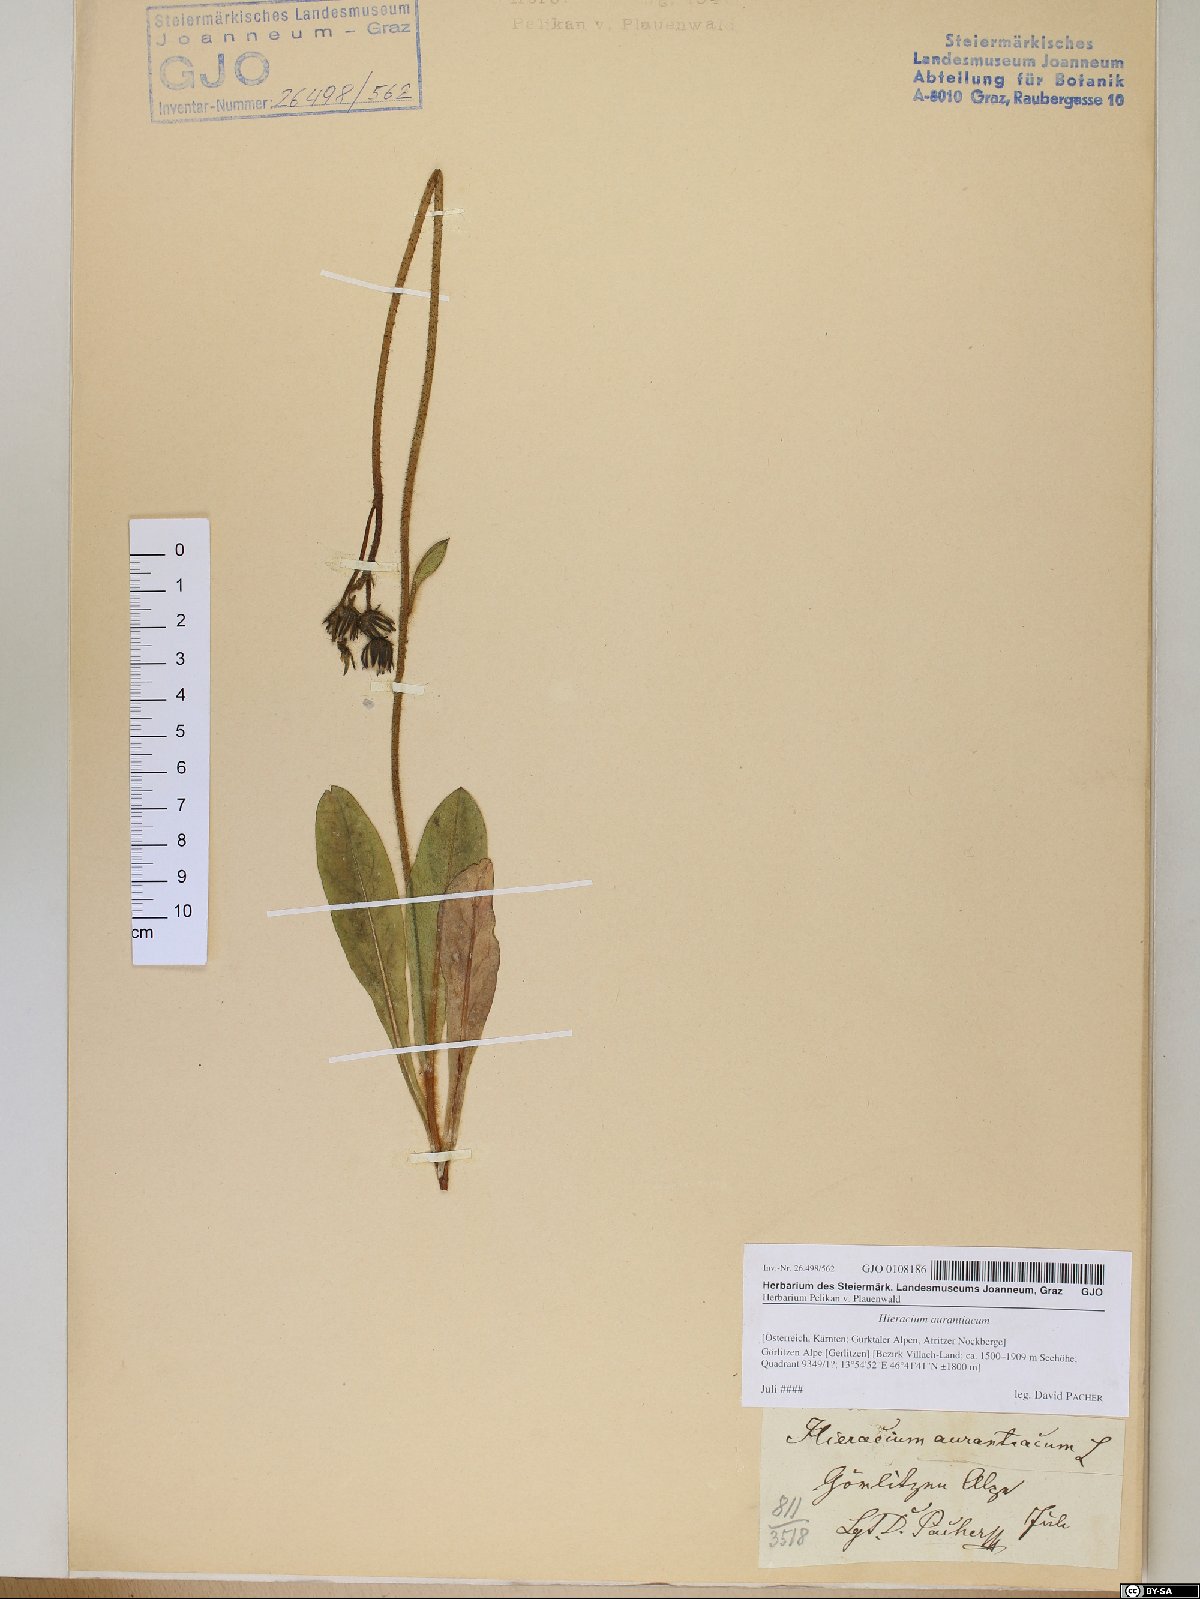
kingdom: Plantae
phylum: Tracheophyta
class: Magnoliopsida
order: Asterales
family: Asteraceae
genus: Pilosella
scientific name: Pilosella aurantiaca
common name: Fox-and-cubs
